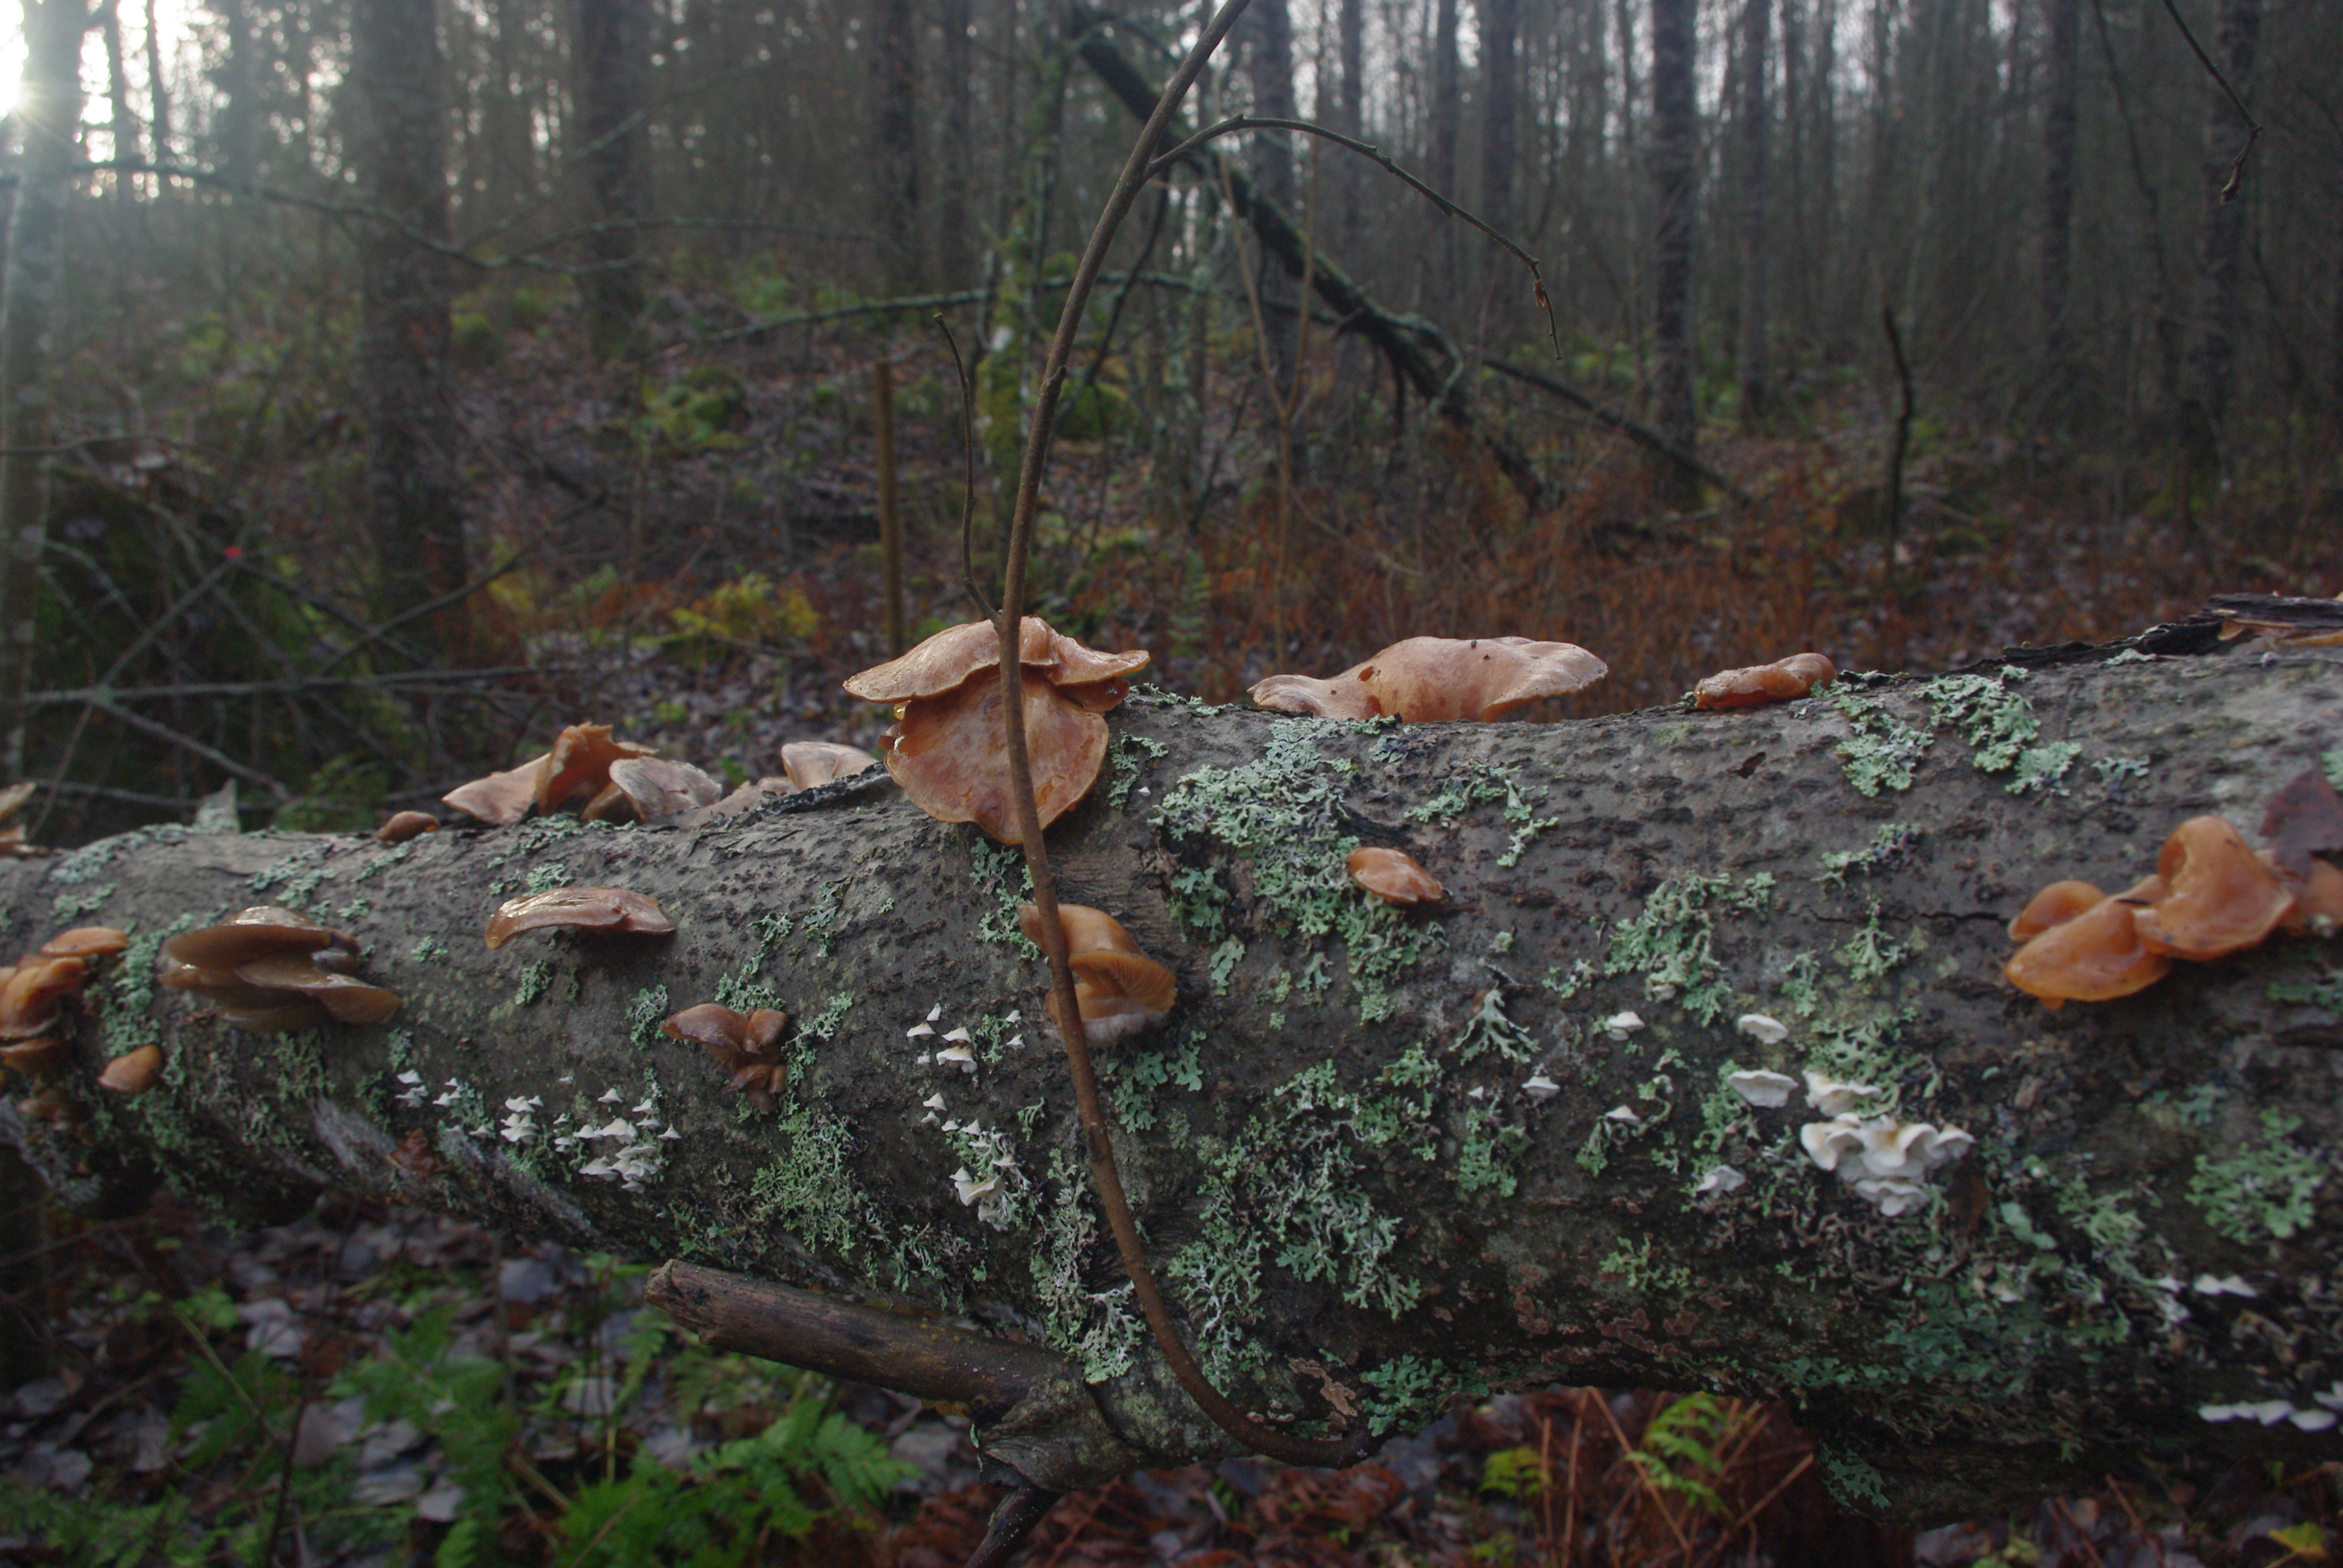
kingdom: Fungi
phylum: Basidiomycota
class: Agaricomycetes
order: Agaricales
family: Sarcomyxaceae
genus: Sarcomyxa
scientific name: Sarcomyxa serotina
